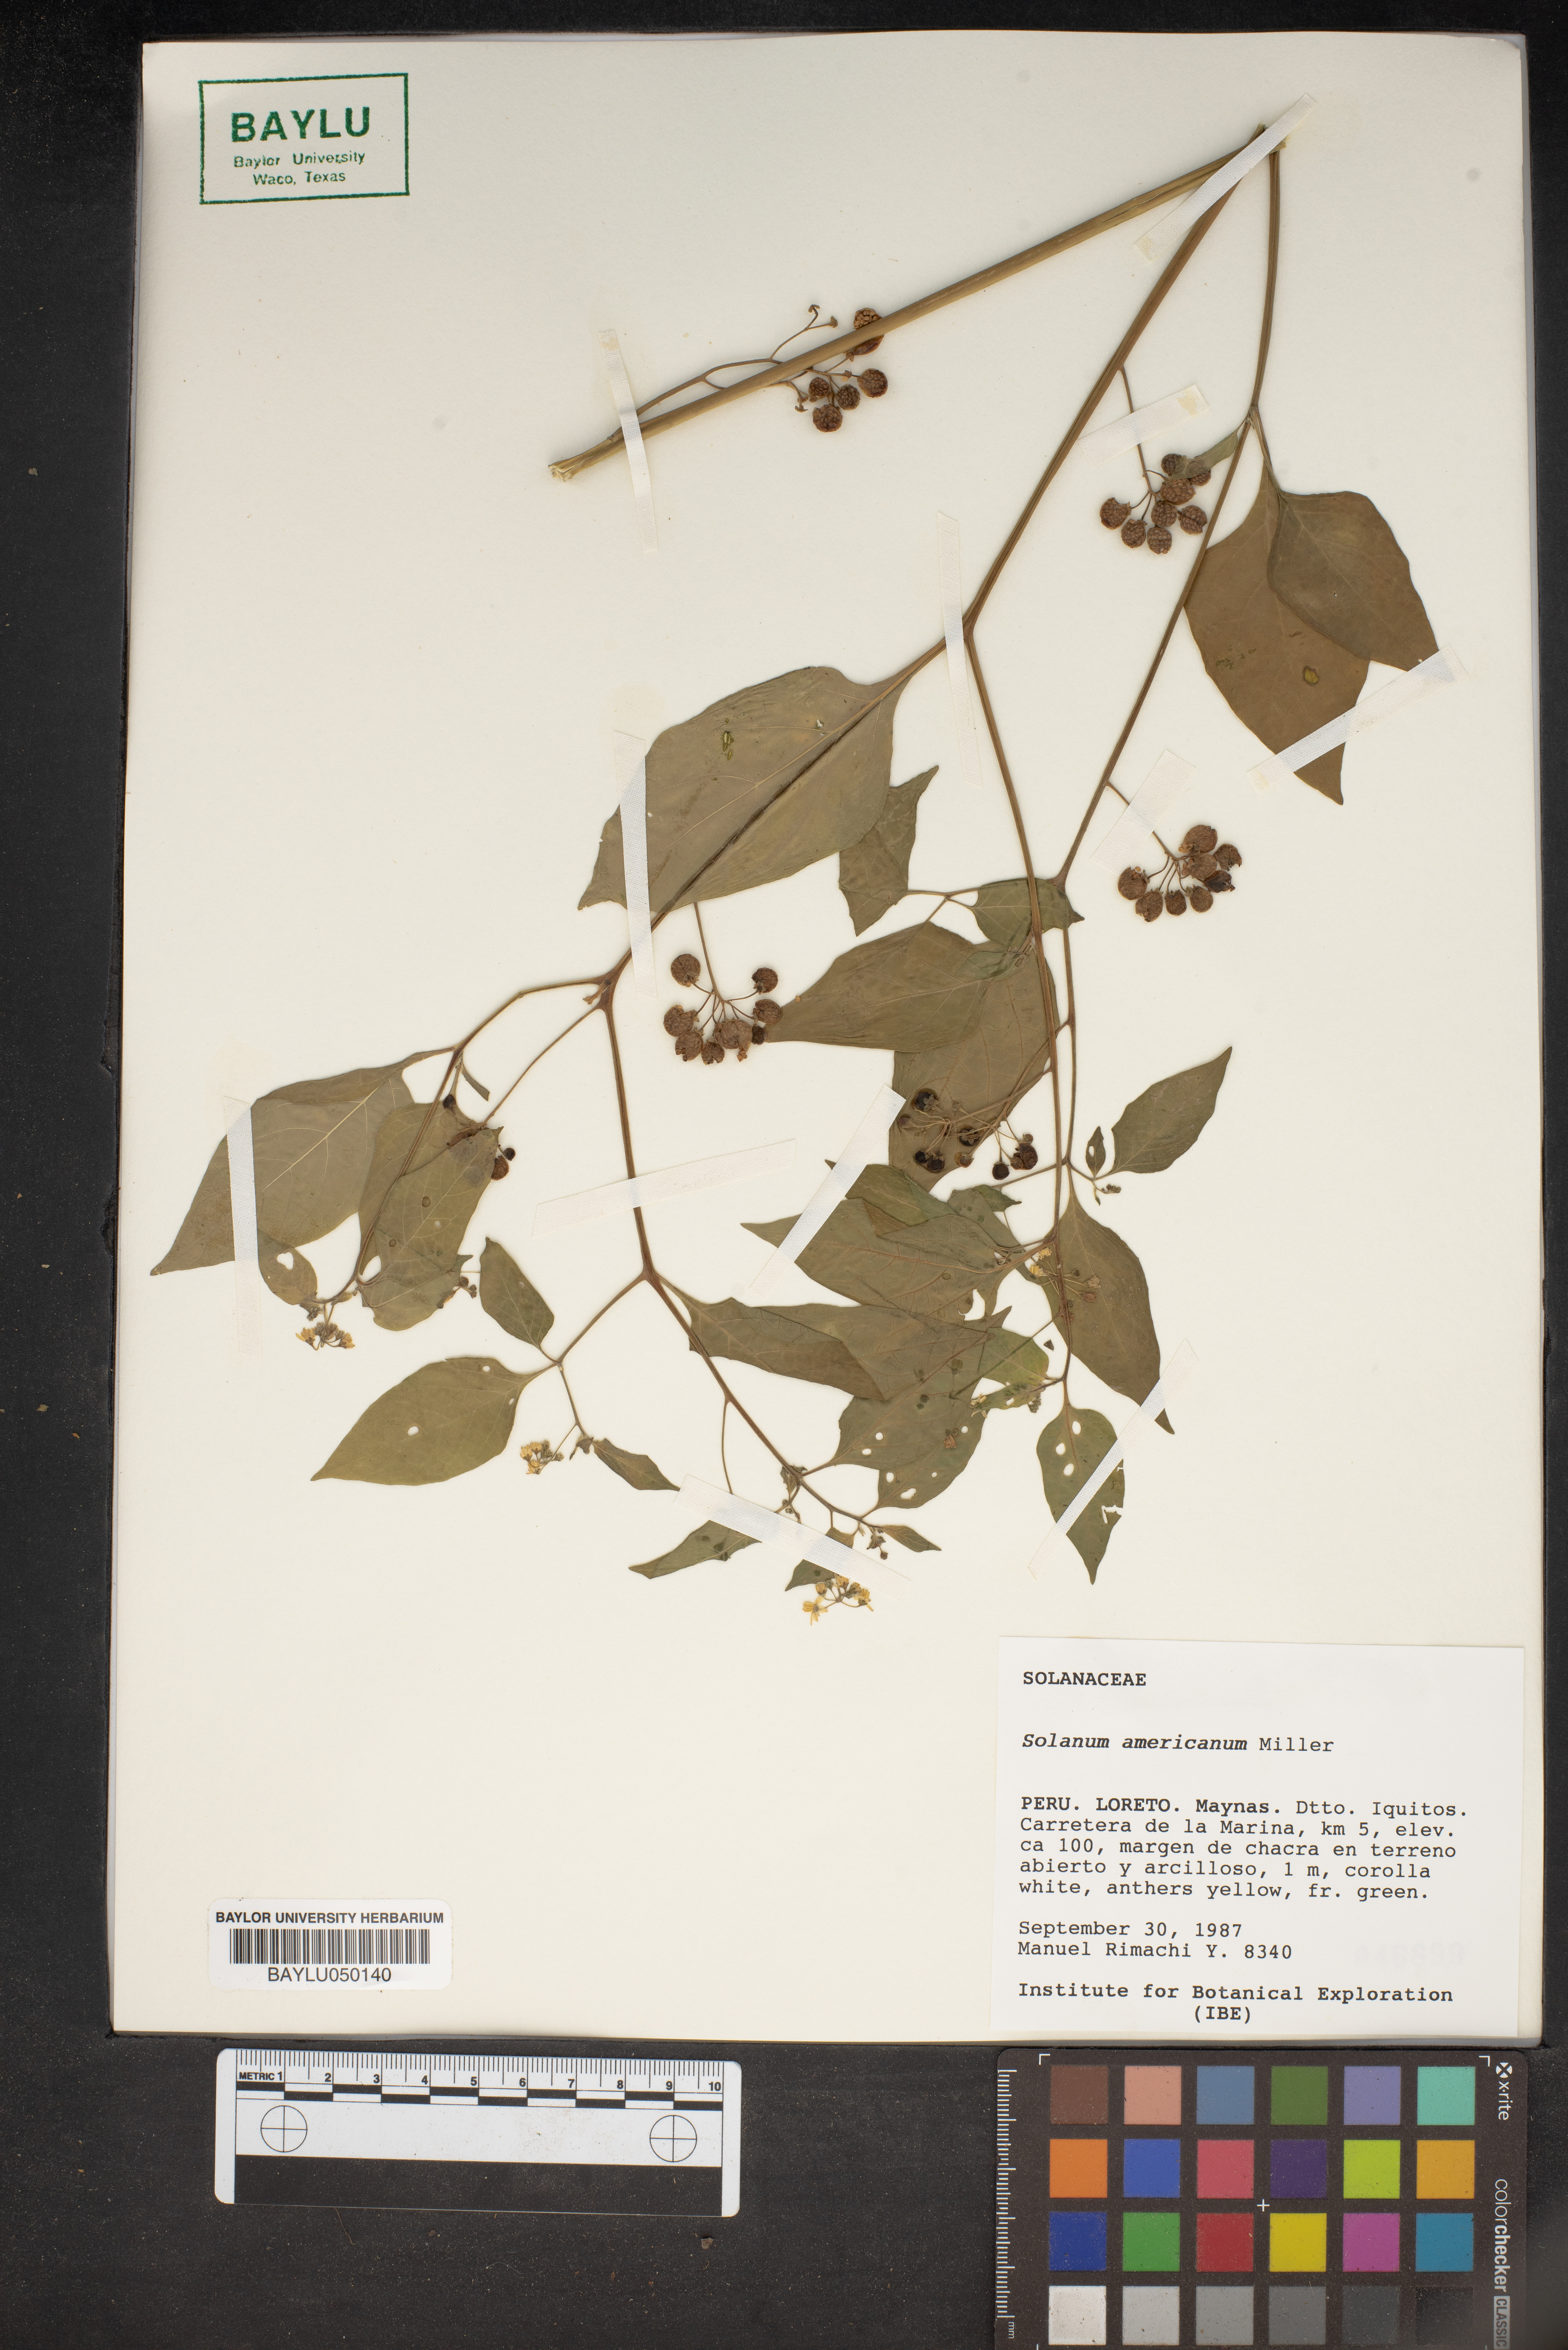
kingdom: Plantae
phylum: Tracheophyta
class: Magnoliopsida
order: Solanales
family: Solanaceae
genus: Solanum
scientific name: Solanum americanum
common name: American black nightshade
